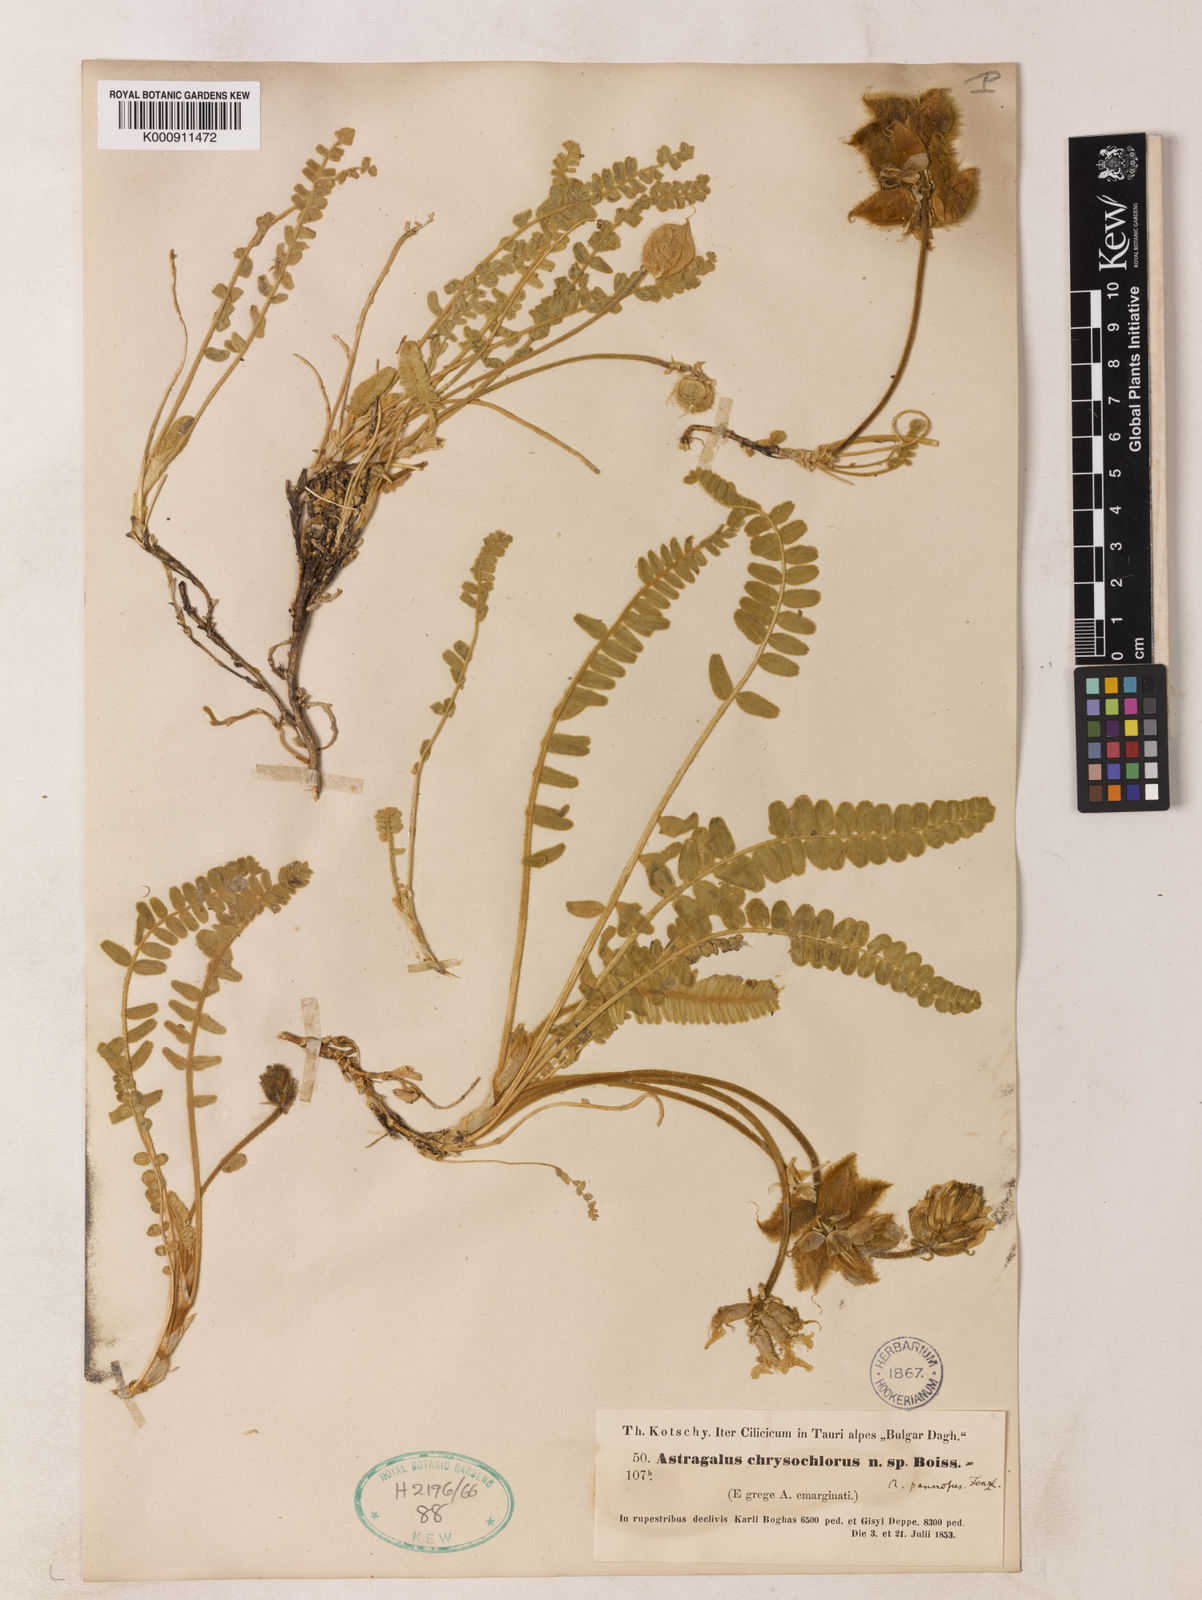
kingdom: Plantae
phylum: Tracheophyta
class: Magnoliopsida
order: Fabales
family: Fabaceae
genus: Astragalus
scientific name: Astragalus chrysochlorus
